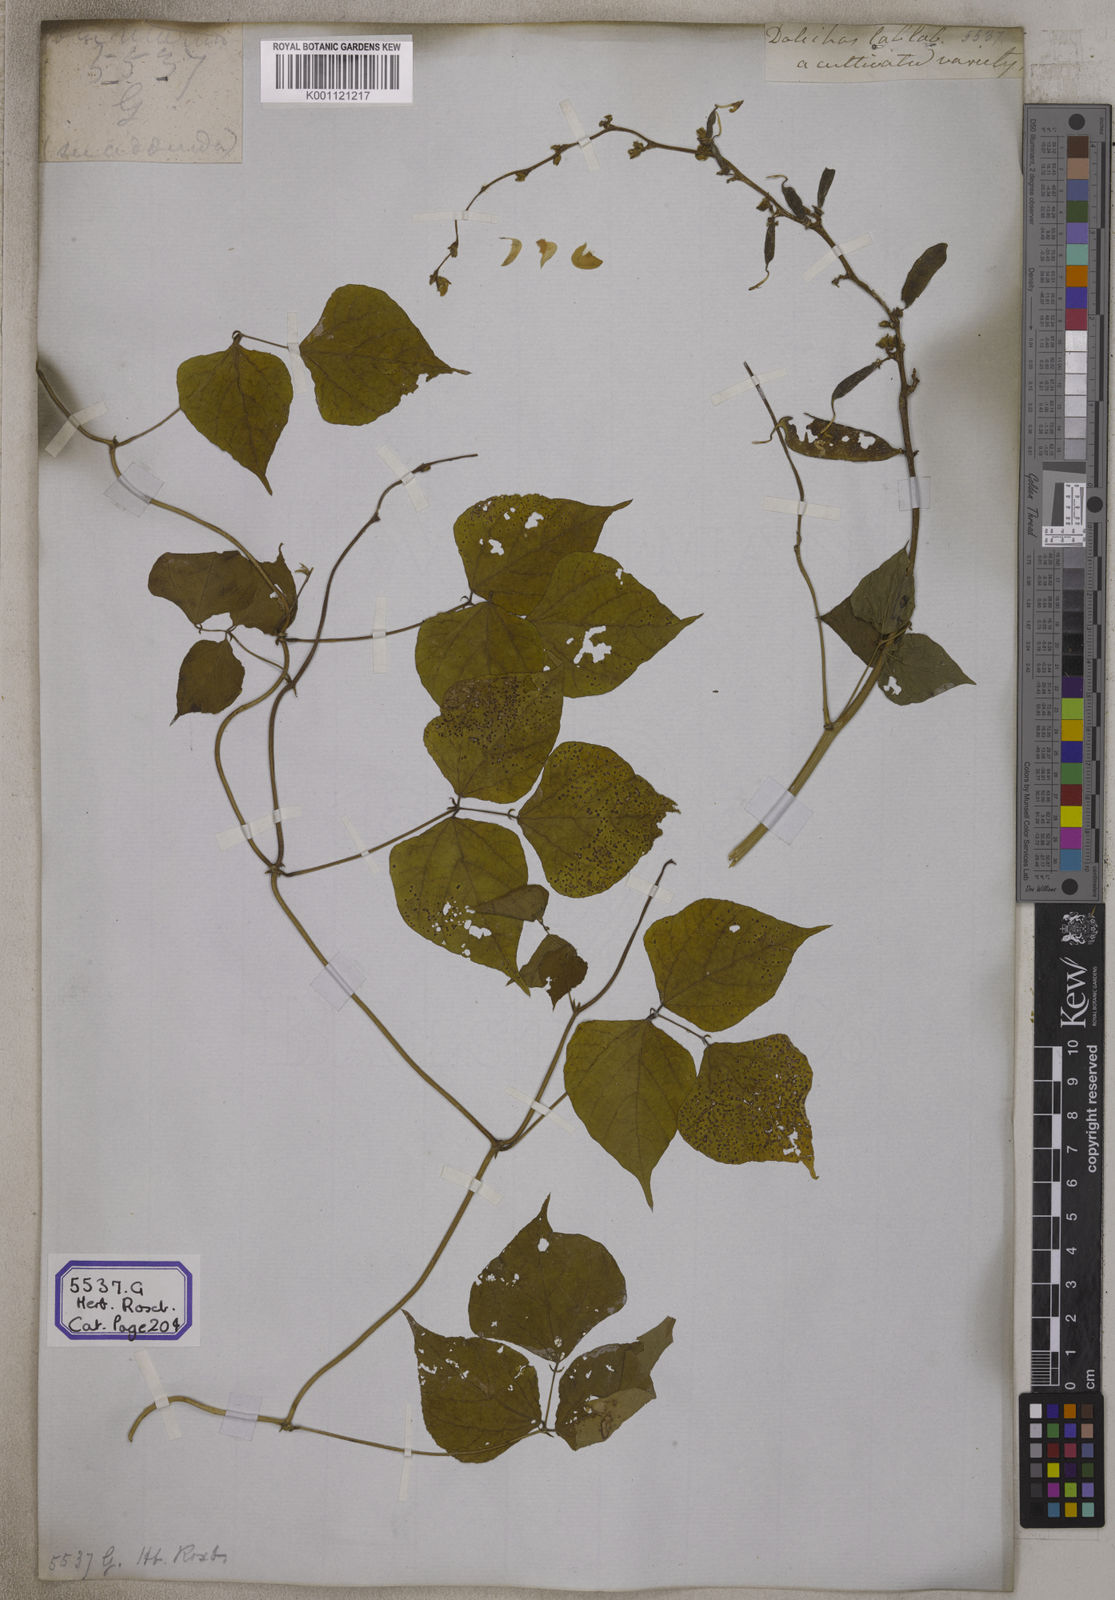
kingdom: Plantae
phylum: Tracheophyta
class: Magnoliopsida
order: Fabales
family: Fabaceae
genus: Lablab
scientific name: Lablab purpureus
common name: Lablab-bean
